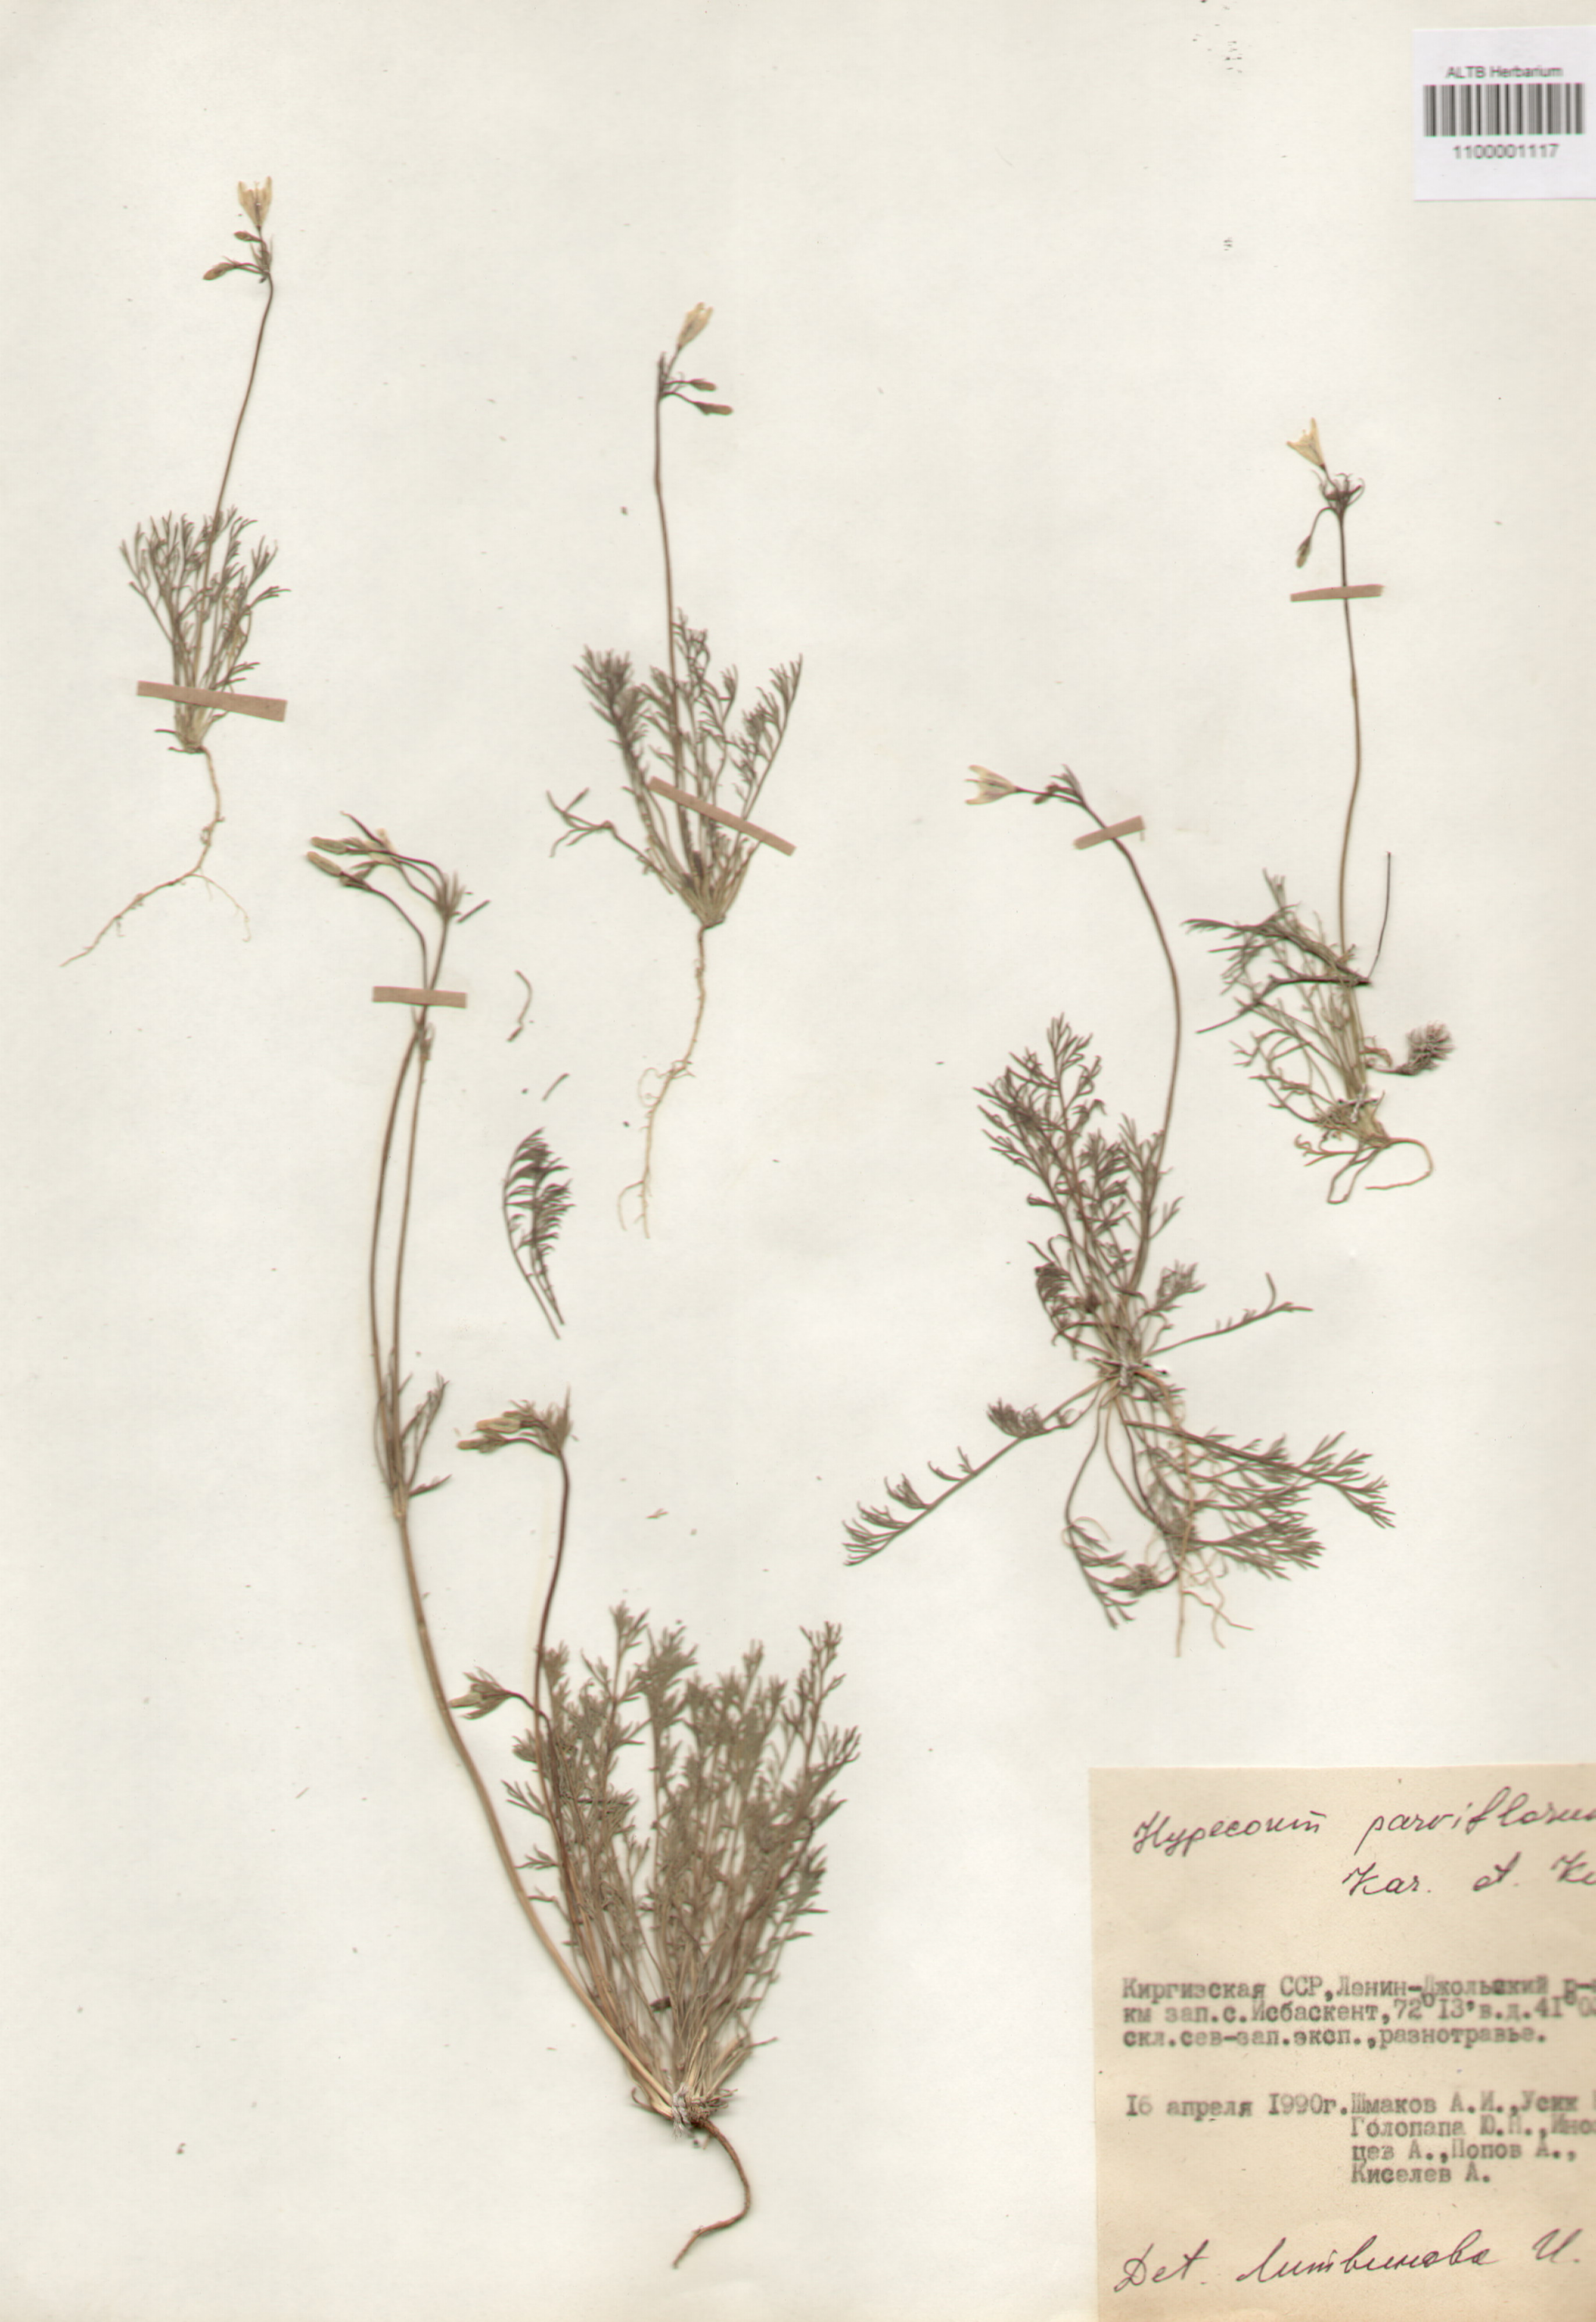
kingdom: Plantae
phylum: Tracheophyta
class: Magnoliopsida
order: Ranunculales
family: Papaveraceae
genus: Hypecoum
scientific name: Hypecoum parviflorum
